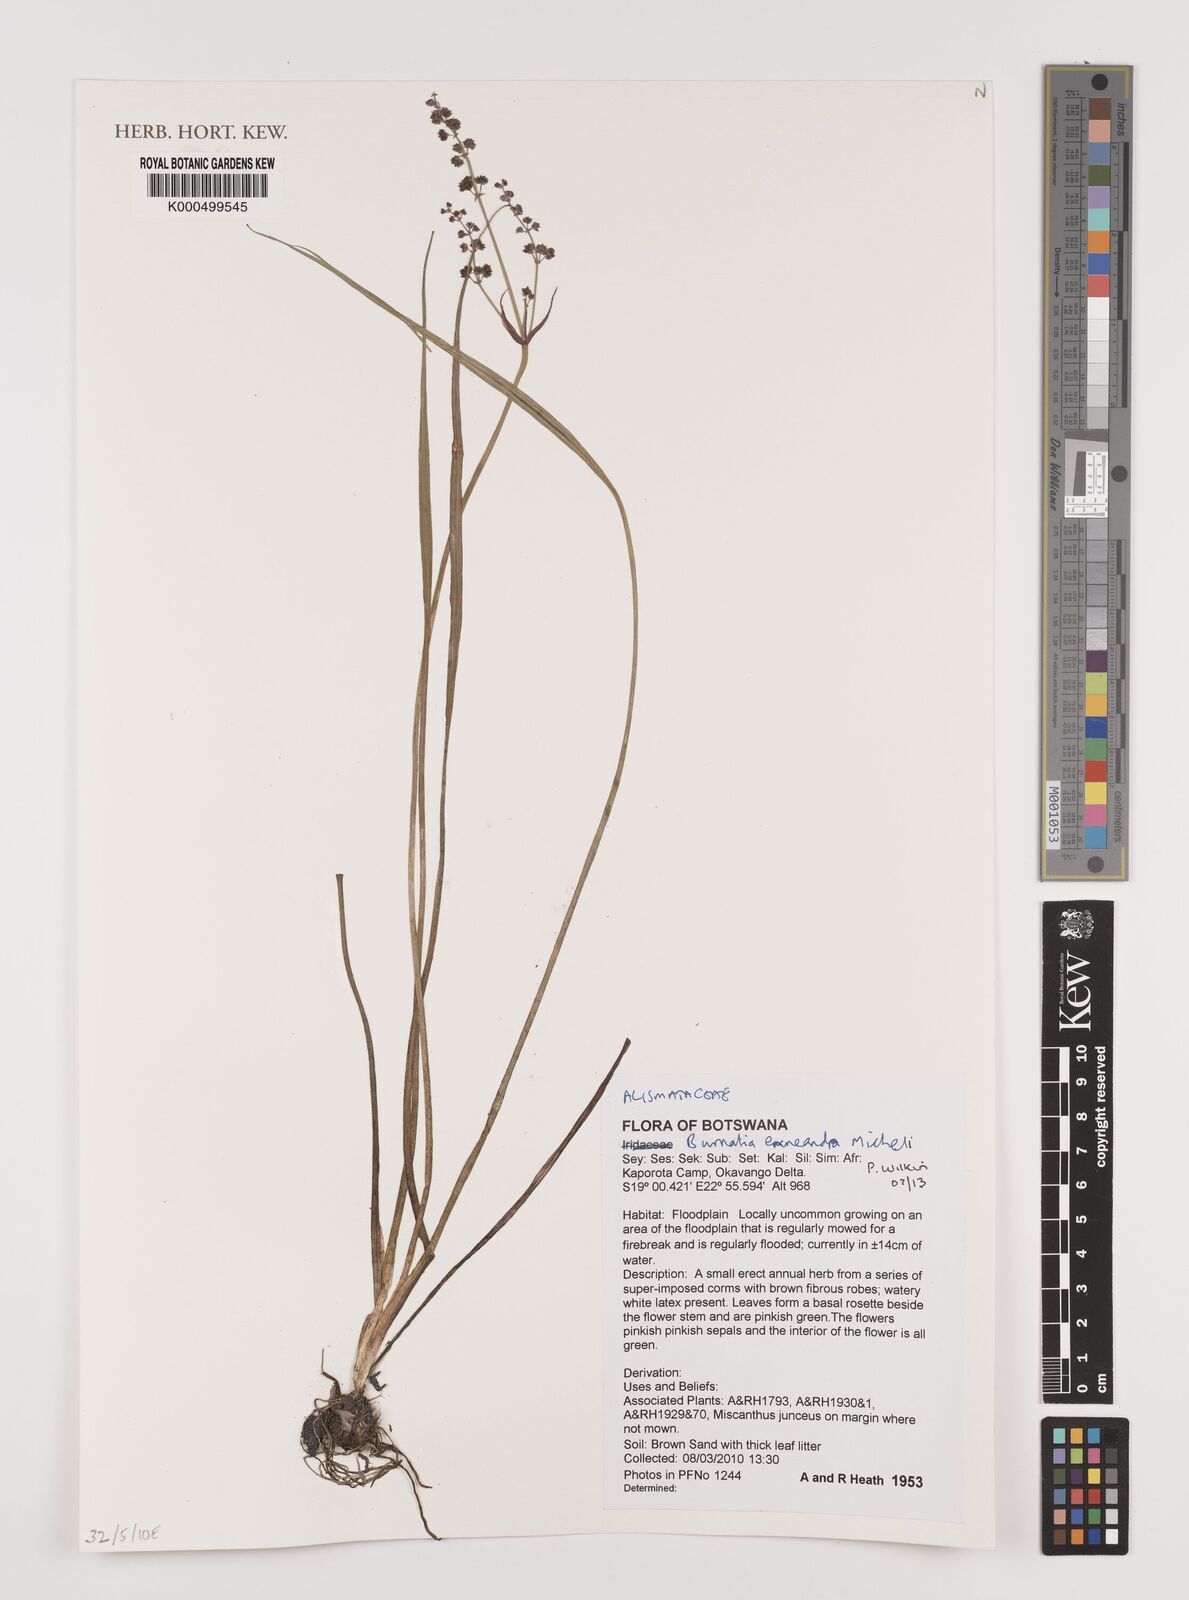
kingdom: Plantae
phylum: Tracheophyta
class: Liliopsida
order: Alismatales
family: Alismataceae
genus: Burnatia
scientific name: Burnatia enneandra
